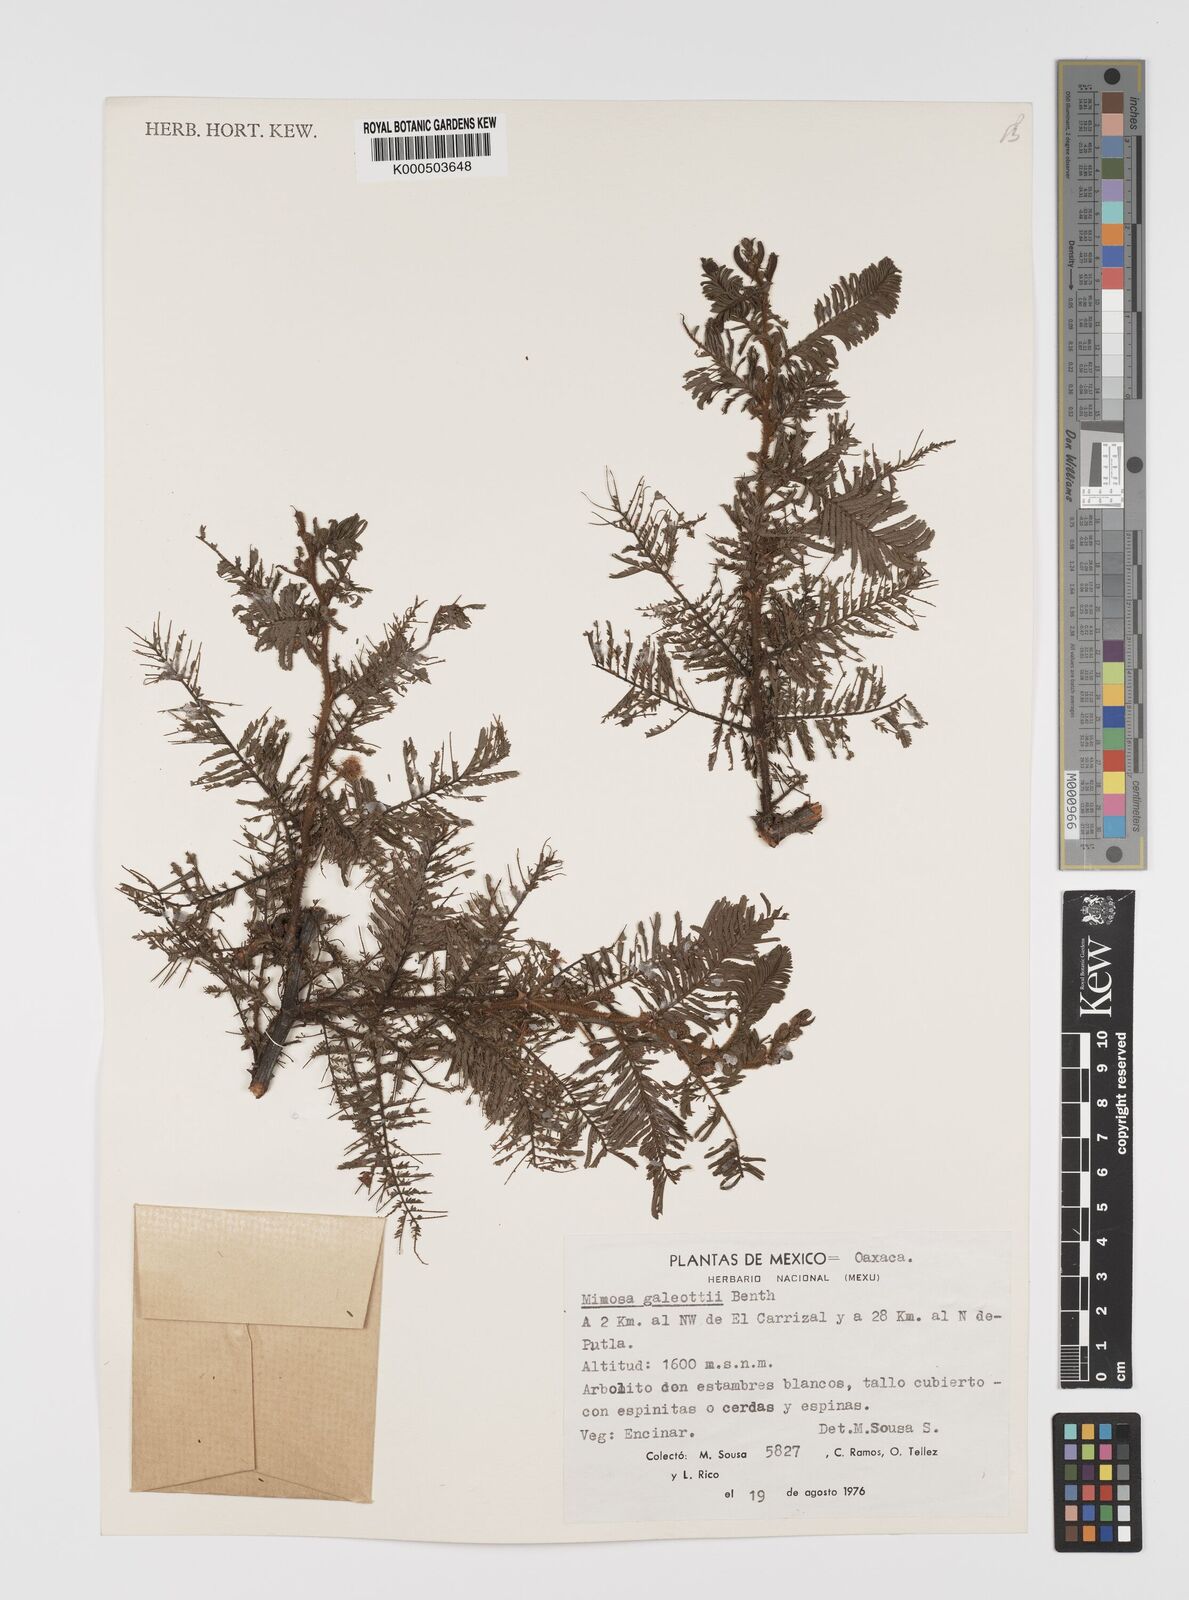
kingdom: Plantae
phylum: Tracheophyta
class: Magnoliopsida
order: Fabales
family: Fabaceae
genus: Mimosa
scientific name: Mimosa galeottii
